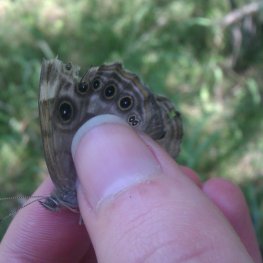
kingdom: Animalia
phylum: Arthropoda
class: Insecta
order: Lepidoptera
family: Nymphalidae
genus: Lethe
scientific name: Lethe anthedon
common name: Northern Pearly-Eye
